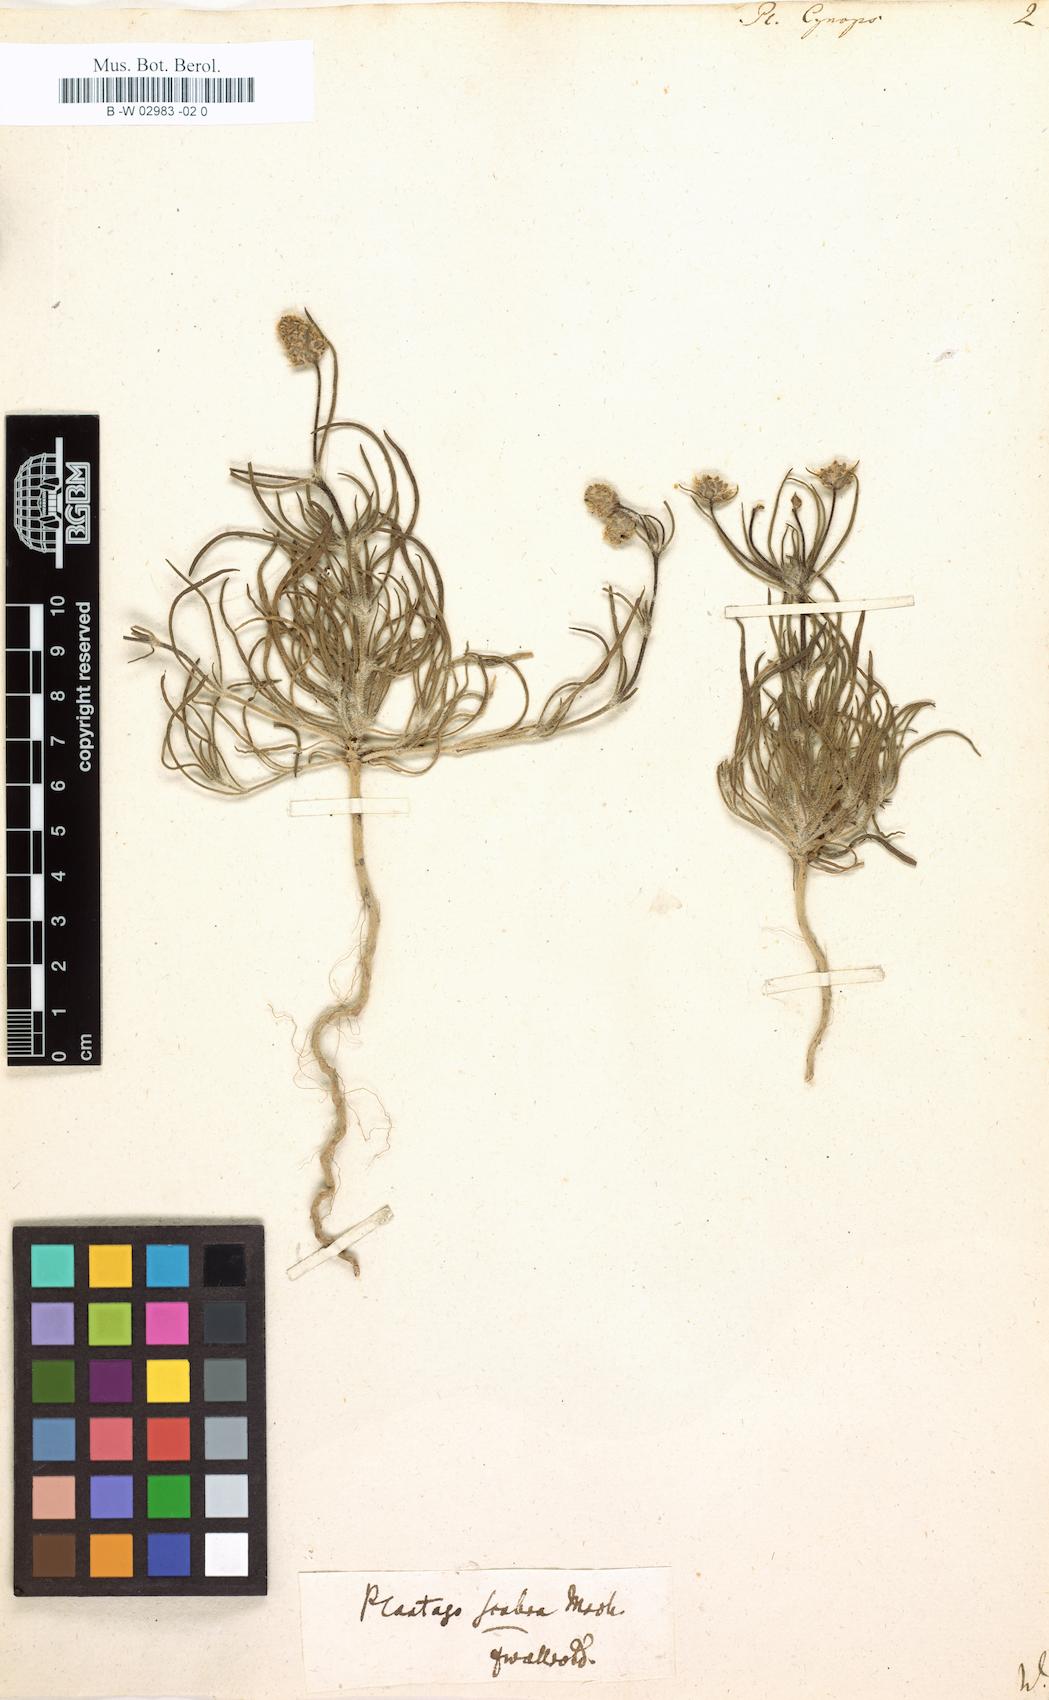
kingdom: Plantae
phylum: Tracheophyta
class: Magnoliopsida
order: Lamiales
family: Plantaginaceae
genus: Plantago
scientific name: Plantago sempervirens
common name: Shrubby plantain
